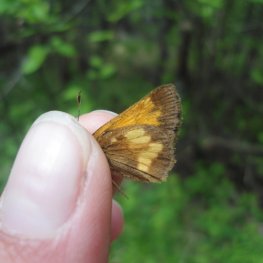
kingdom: Animalia
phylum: Arthropoda
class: Insecta
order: Lepidoptera
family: Hesperiidae
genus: Lon
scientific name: Lon hobomok
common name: Hobomok Skipper
